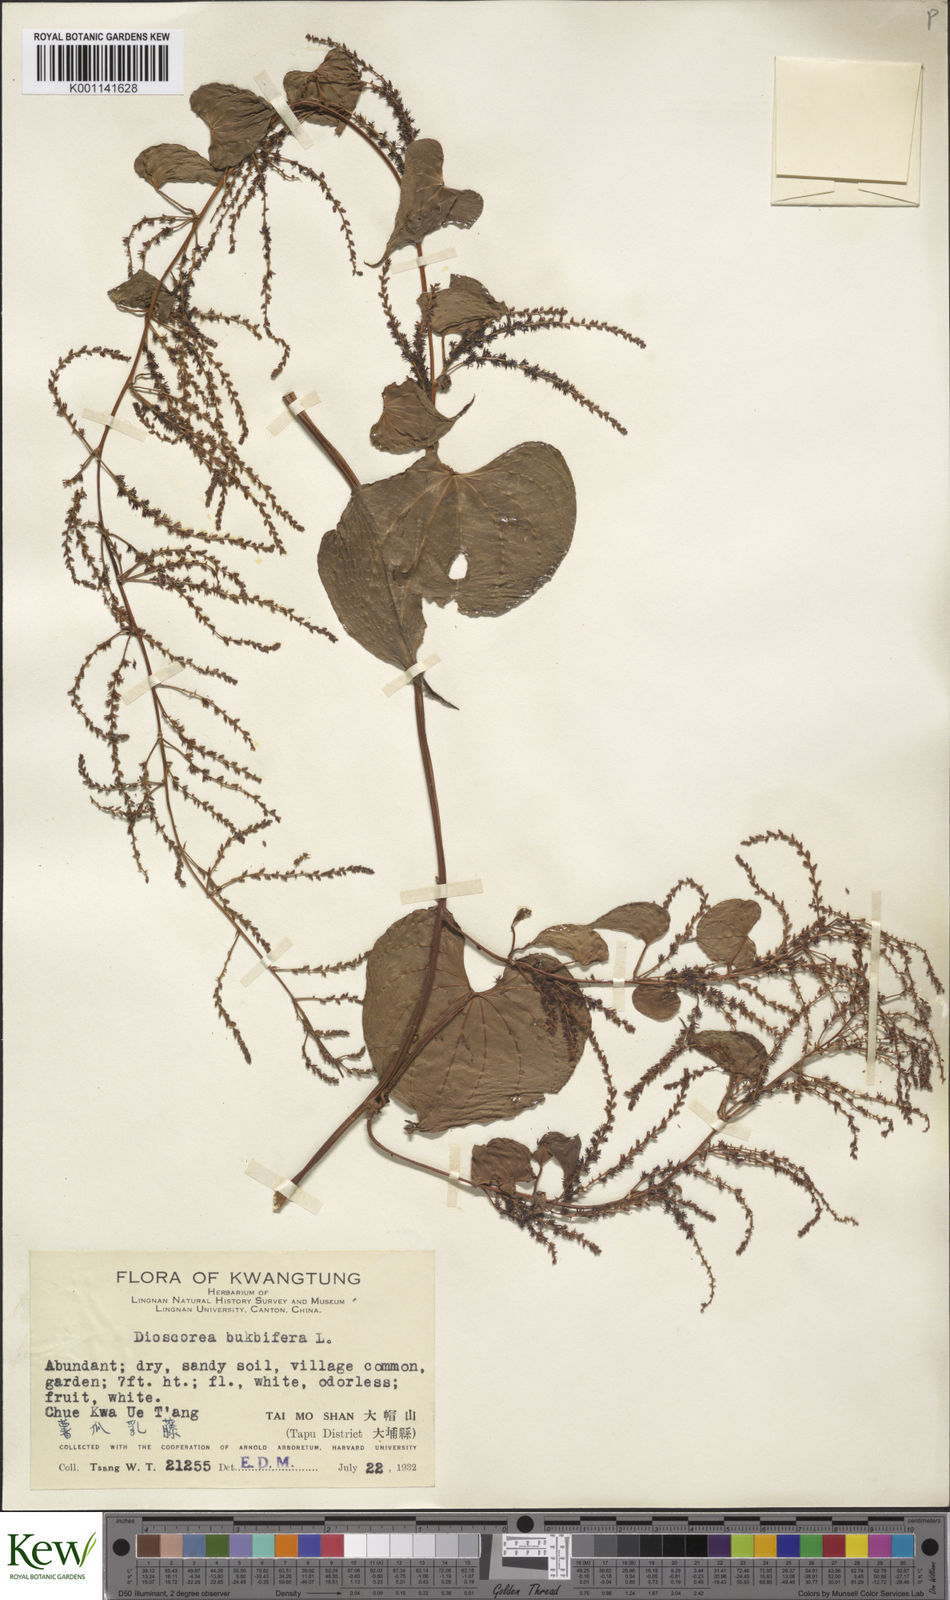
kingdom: Plantae
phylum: Tracheophyta
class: Liliopsida
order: Dioscoreales
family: Dioscoreaceae
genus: Dioscorea
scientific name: Dioscorea bulbifera
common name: Air yam
